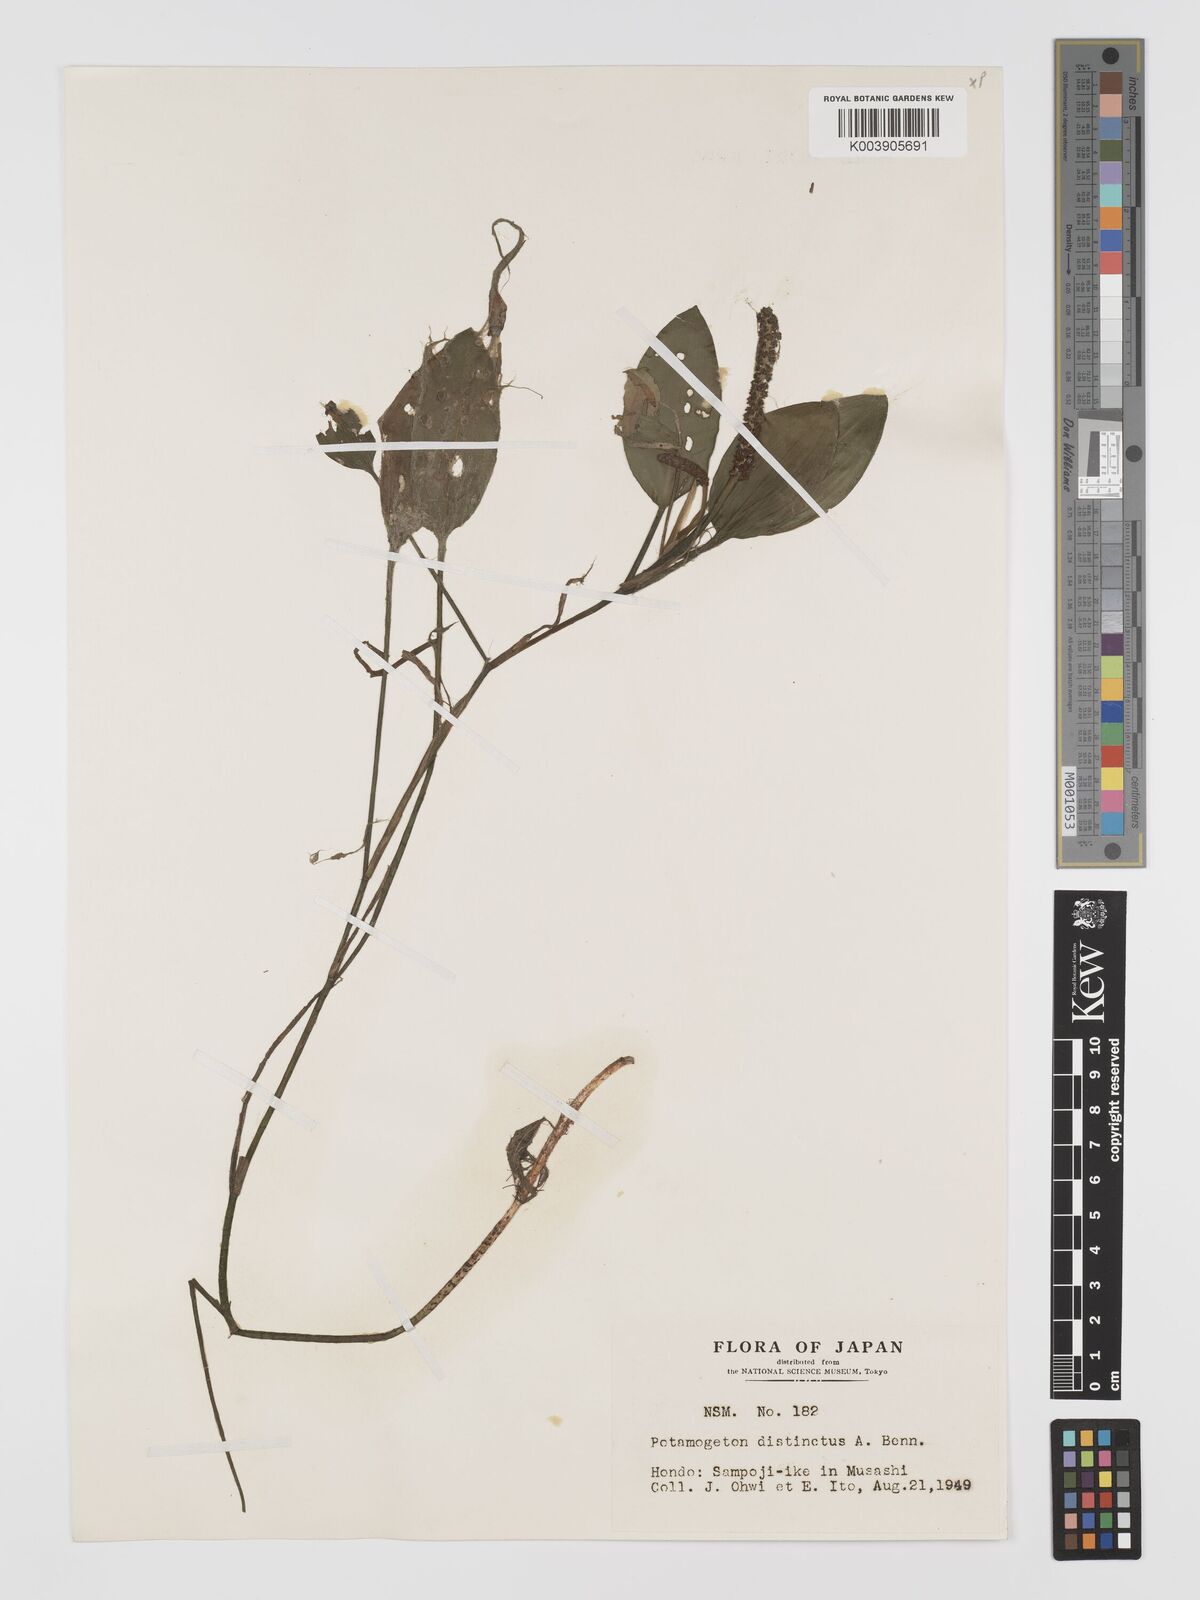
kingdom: Plantae
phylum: Tracheophyta
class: Liliopsida
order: Alismatales
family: Potamogetonaceae
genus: Potamogeton
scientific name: Potamogeton distinctus
